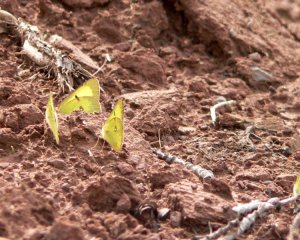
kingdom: Animalia
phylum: Arthropoda
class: Insecta
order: Lepidoptera
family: Pieridae
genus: Colias
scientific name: Colias philodice
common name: Clouded Sulphur
